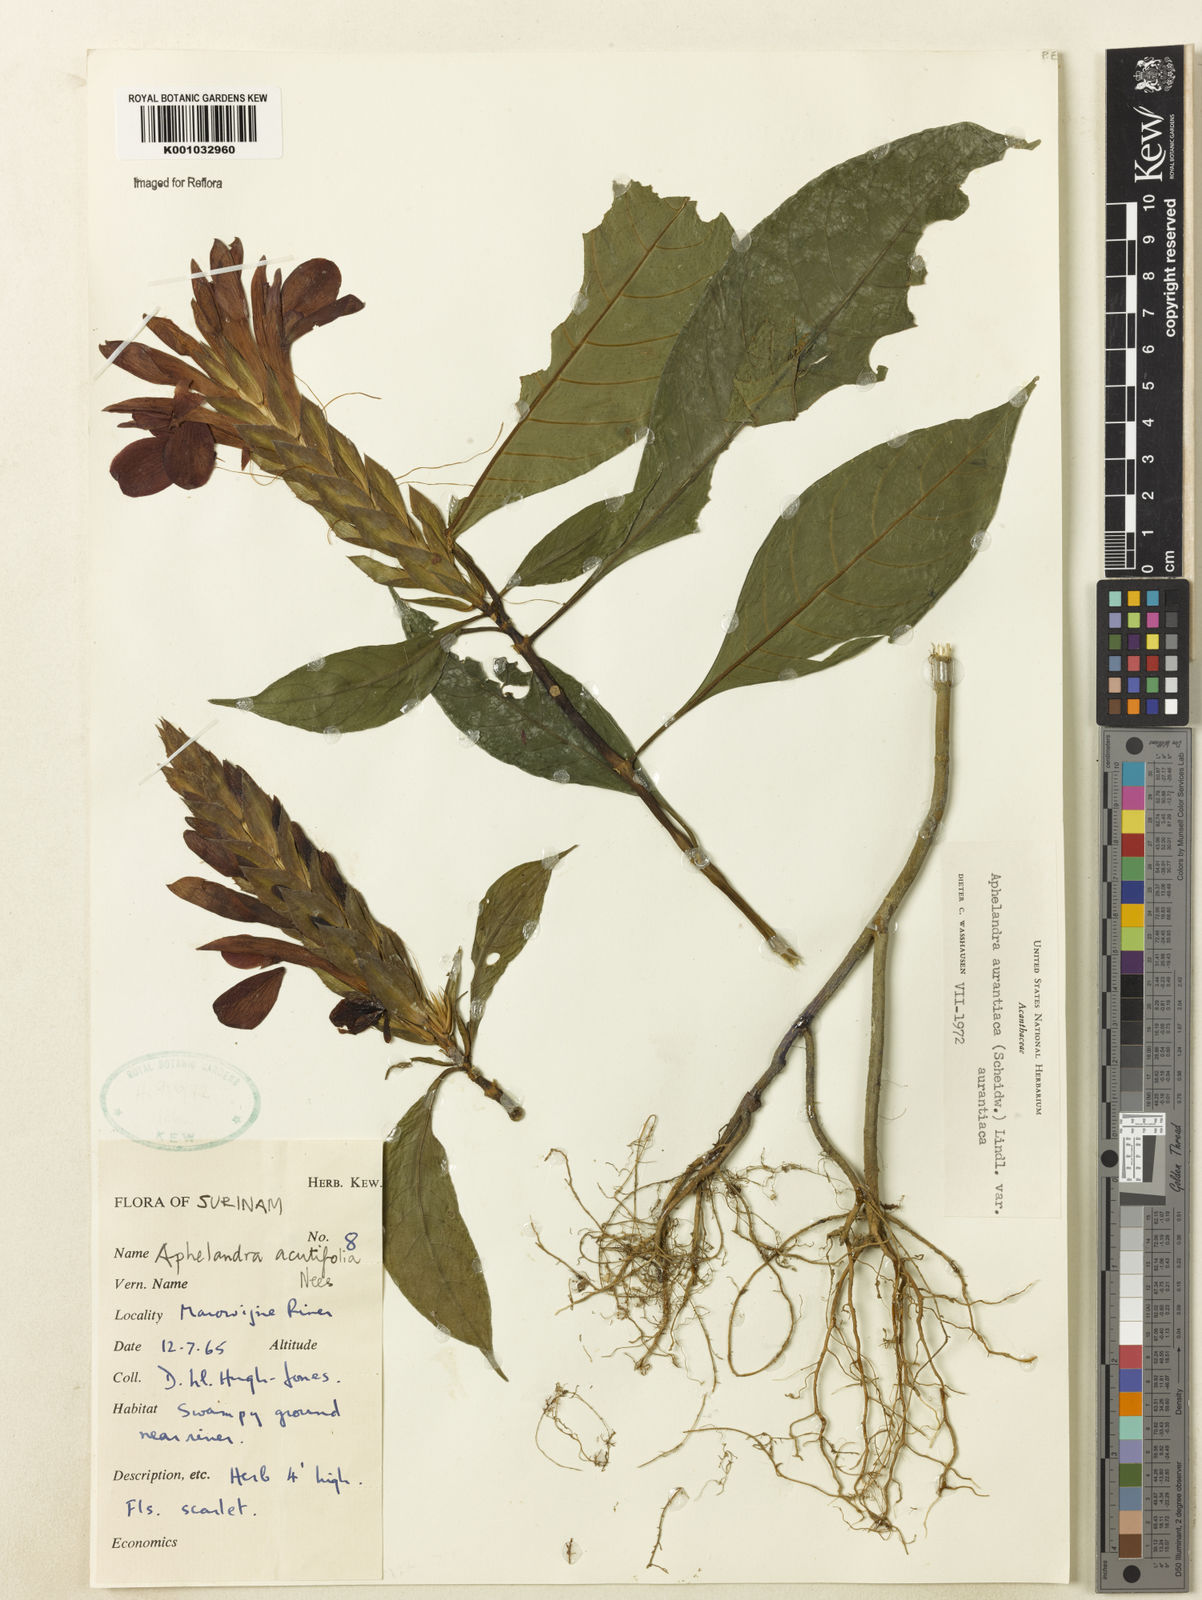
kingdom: Plantae
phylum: Tracheophyta
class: Magnoliopsida
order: Lamiales
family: Acanthaceae
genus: Aphelandra
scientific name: Aphelandra aurantiaca
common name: Fiery spike
